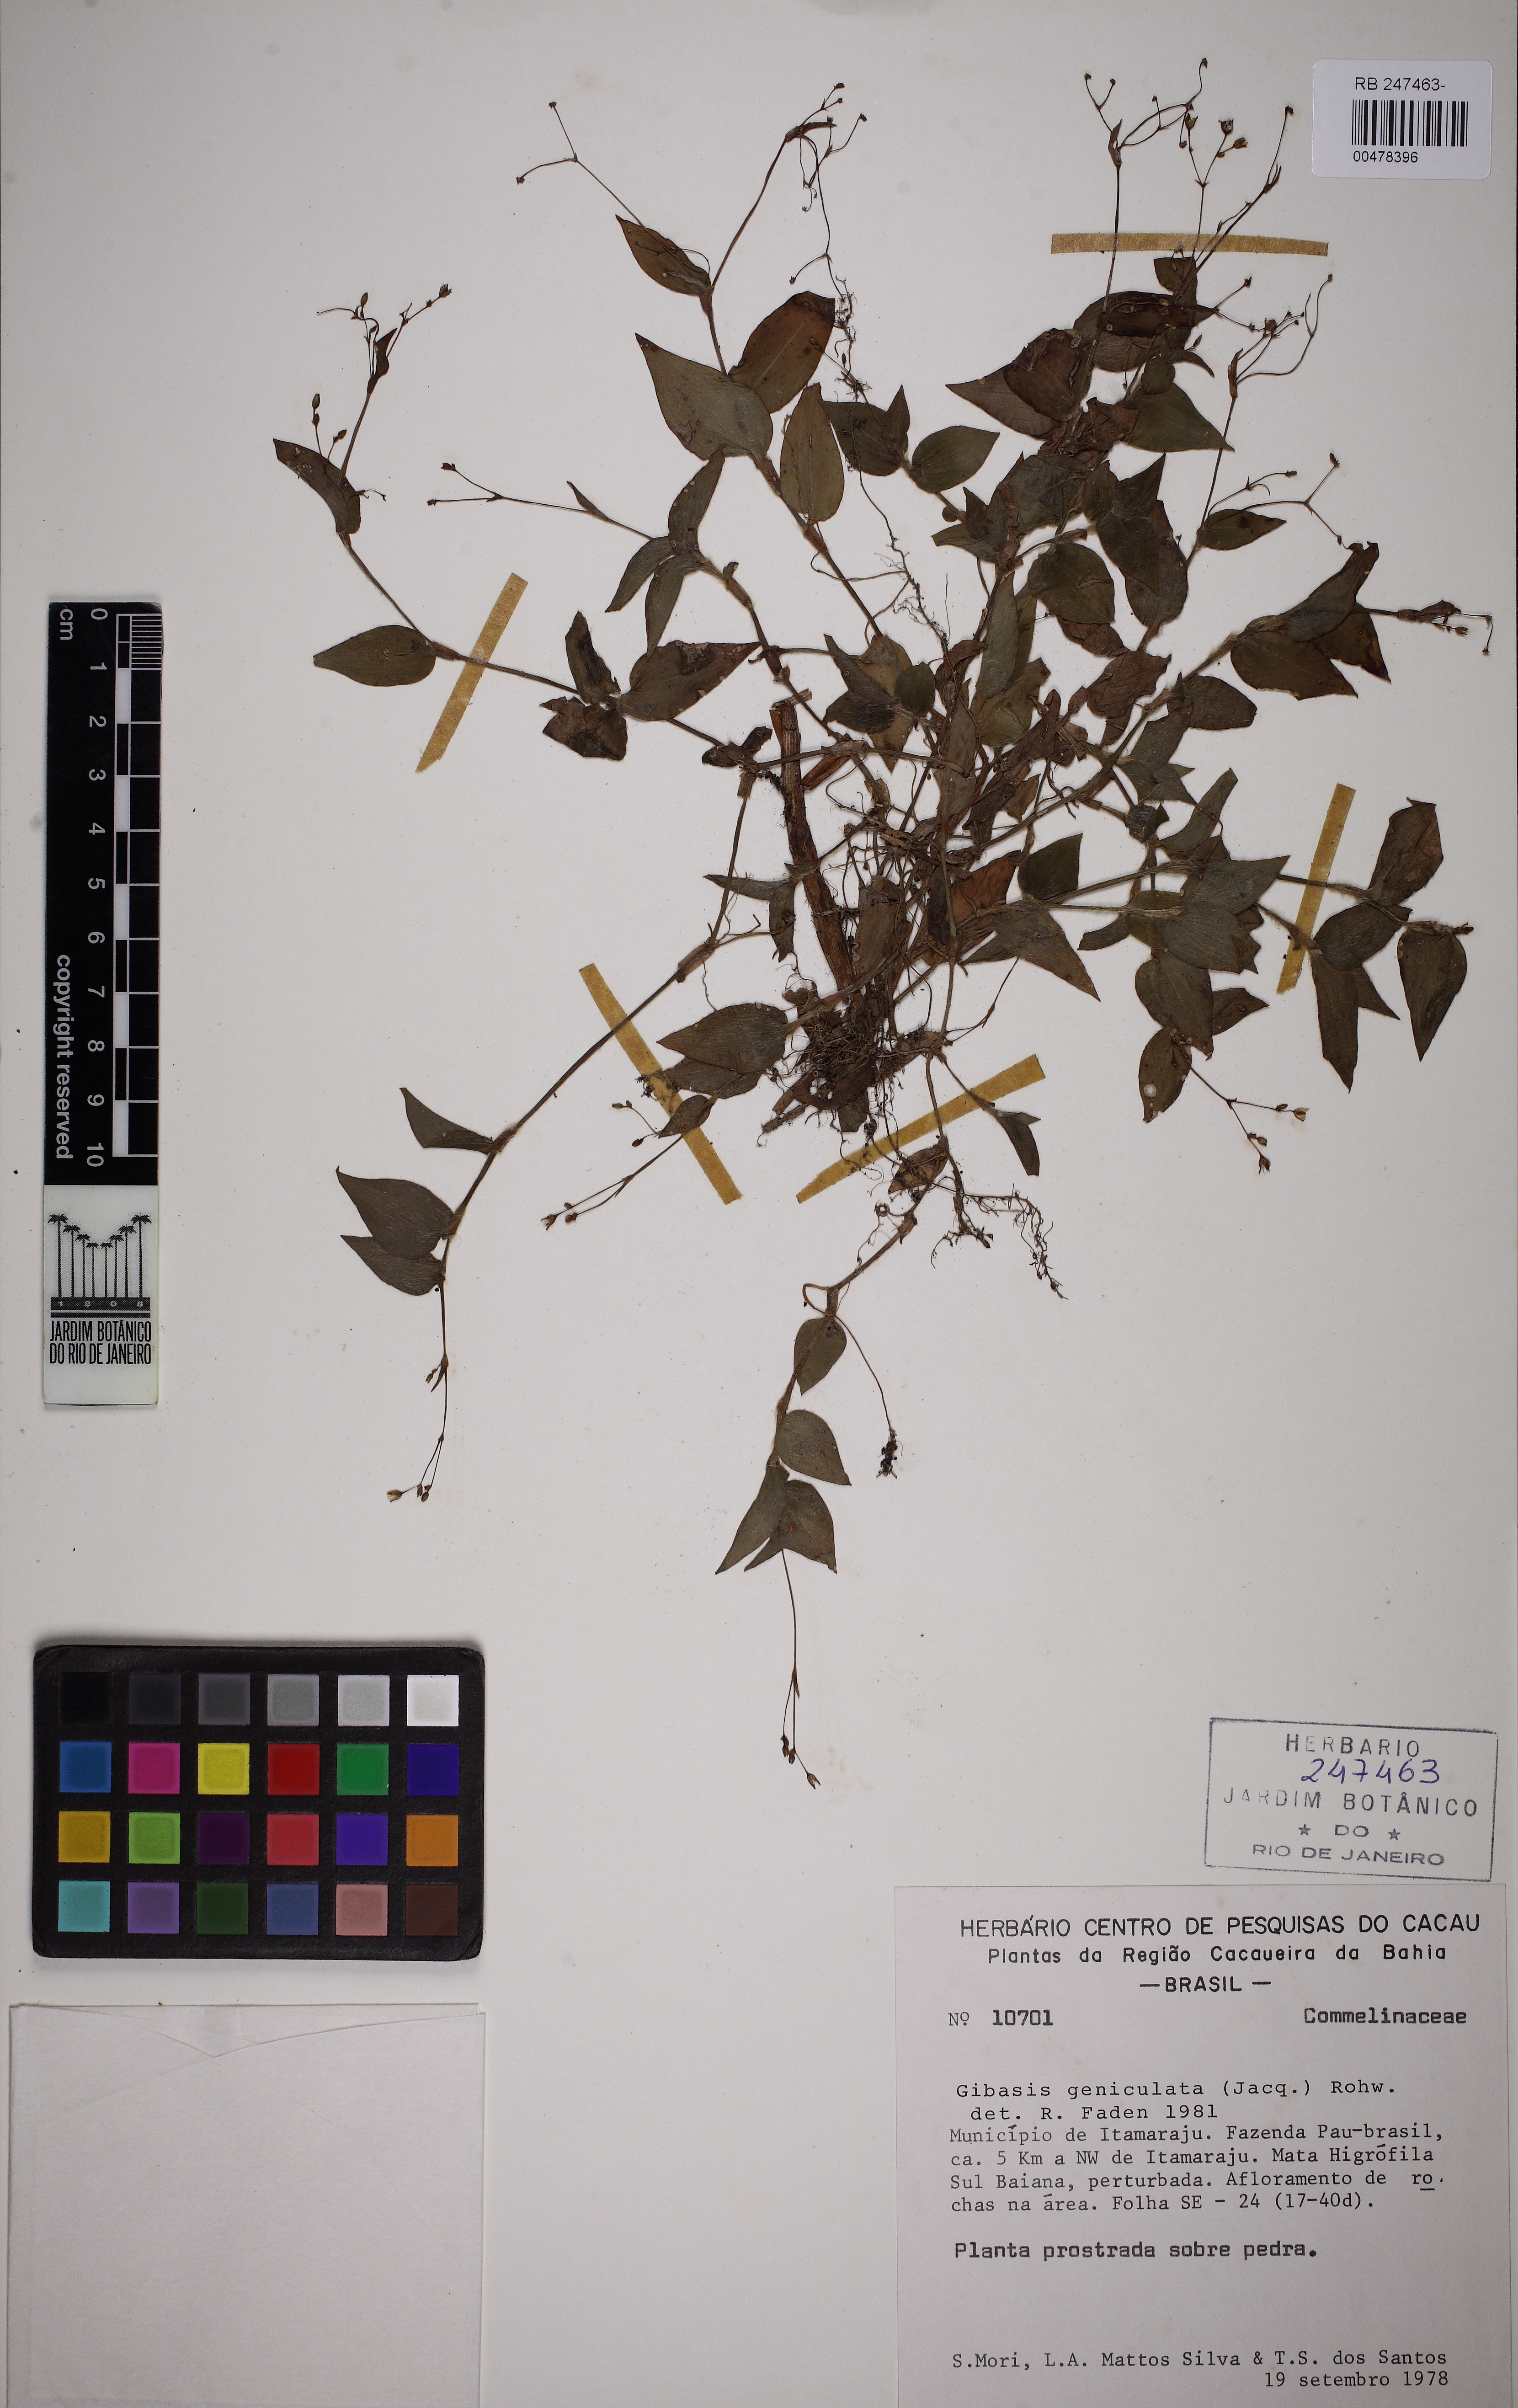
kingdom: Plantae
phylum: Tracheophyta
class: Liliopsida
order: Commelinales
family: Commelinaceae
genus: Gibasis
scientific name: Gibasis geniculata
